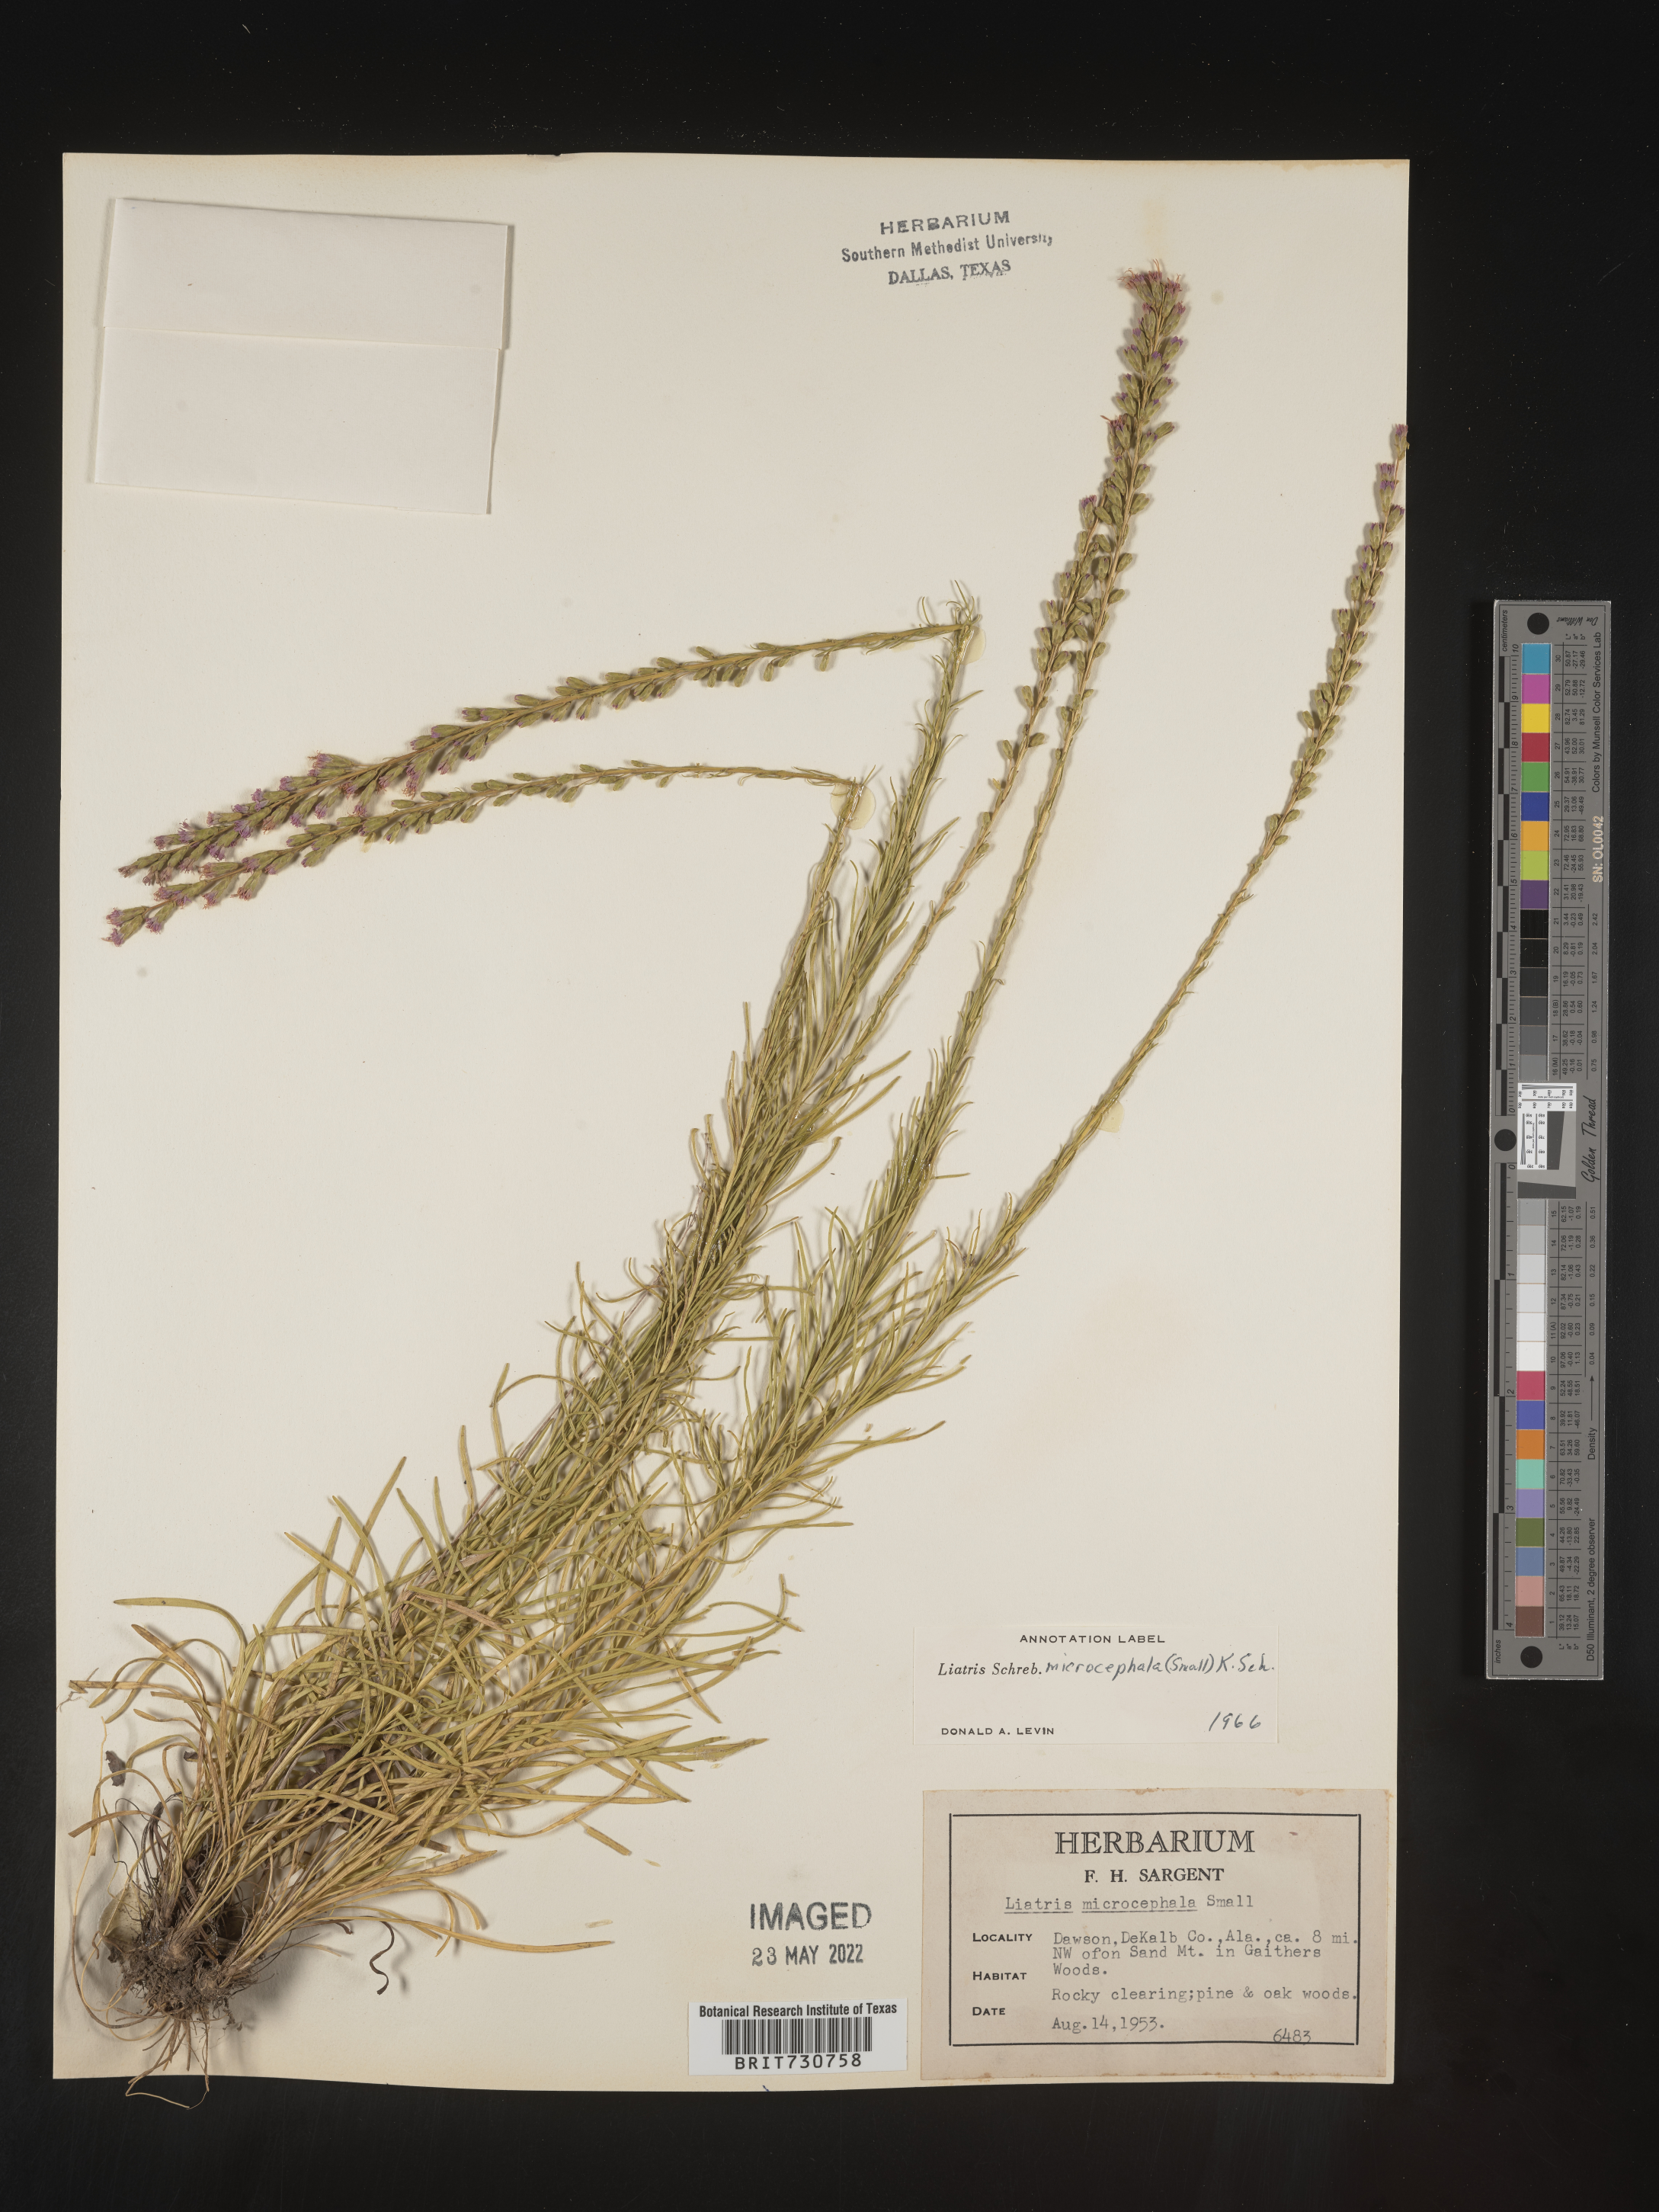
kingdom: Plantae
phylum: Tracheophyta
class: Magnoliopsida
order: Asterales
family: Asteraceae
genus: Liatris
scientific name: Liatris microcephala
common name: Small-head gayfeather
